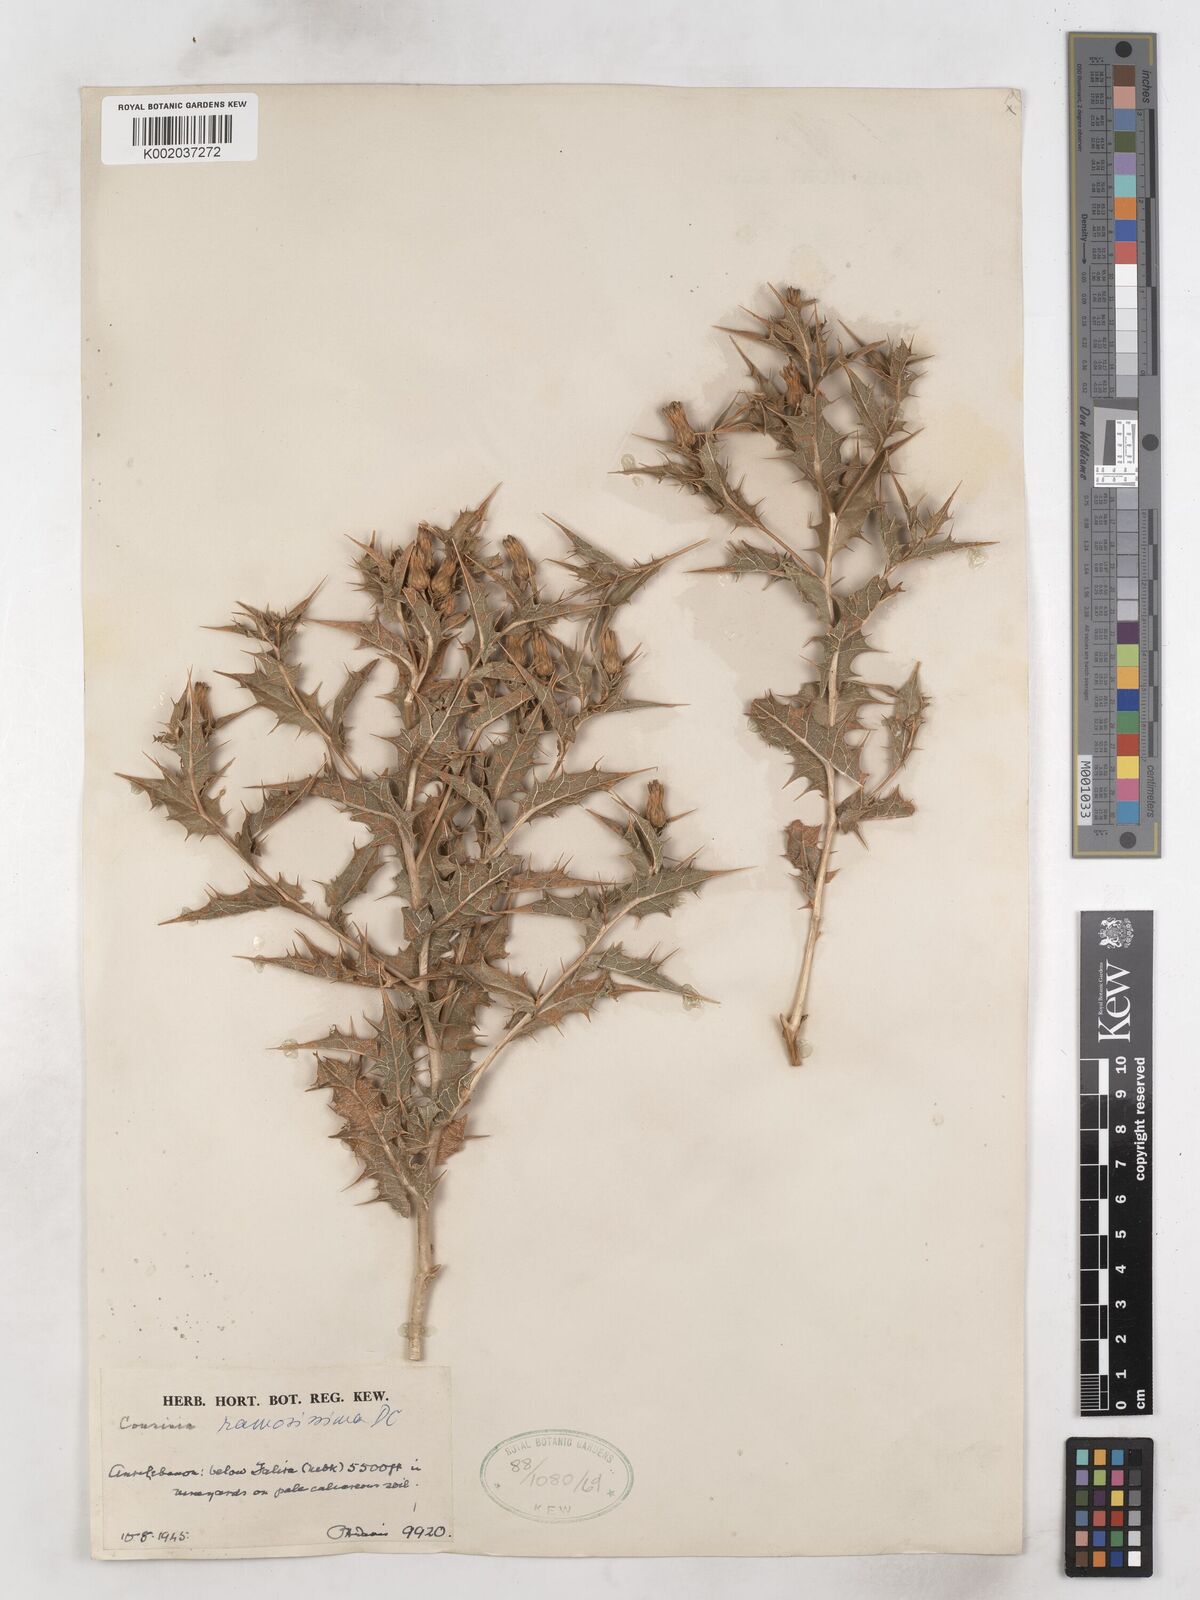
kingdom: Plantae
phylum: Tracheophyta
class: Magnoliopsida
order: Asterales
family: Asteraceae
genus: Cousinia
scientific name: Cousinia ramosissima
